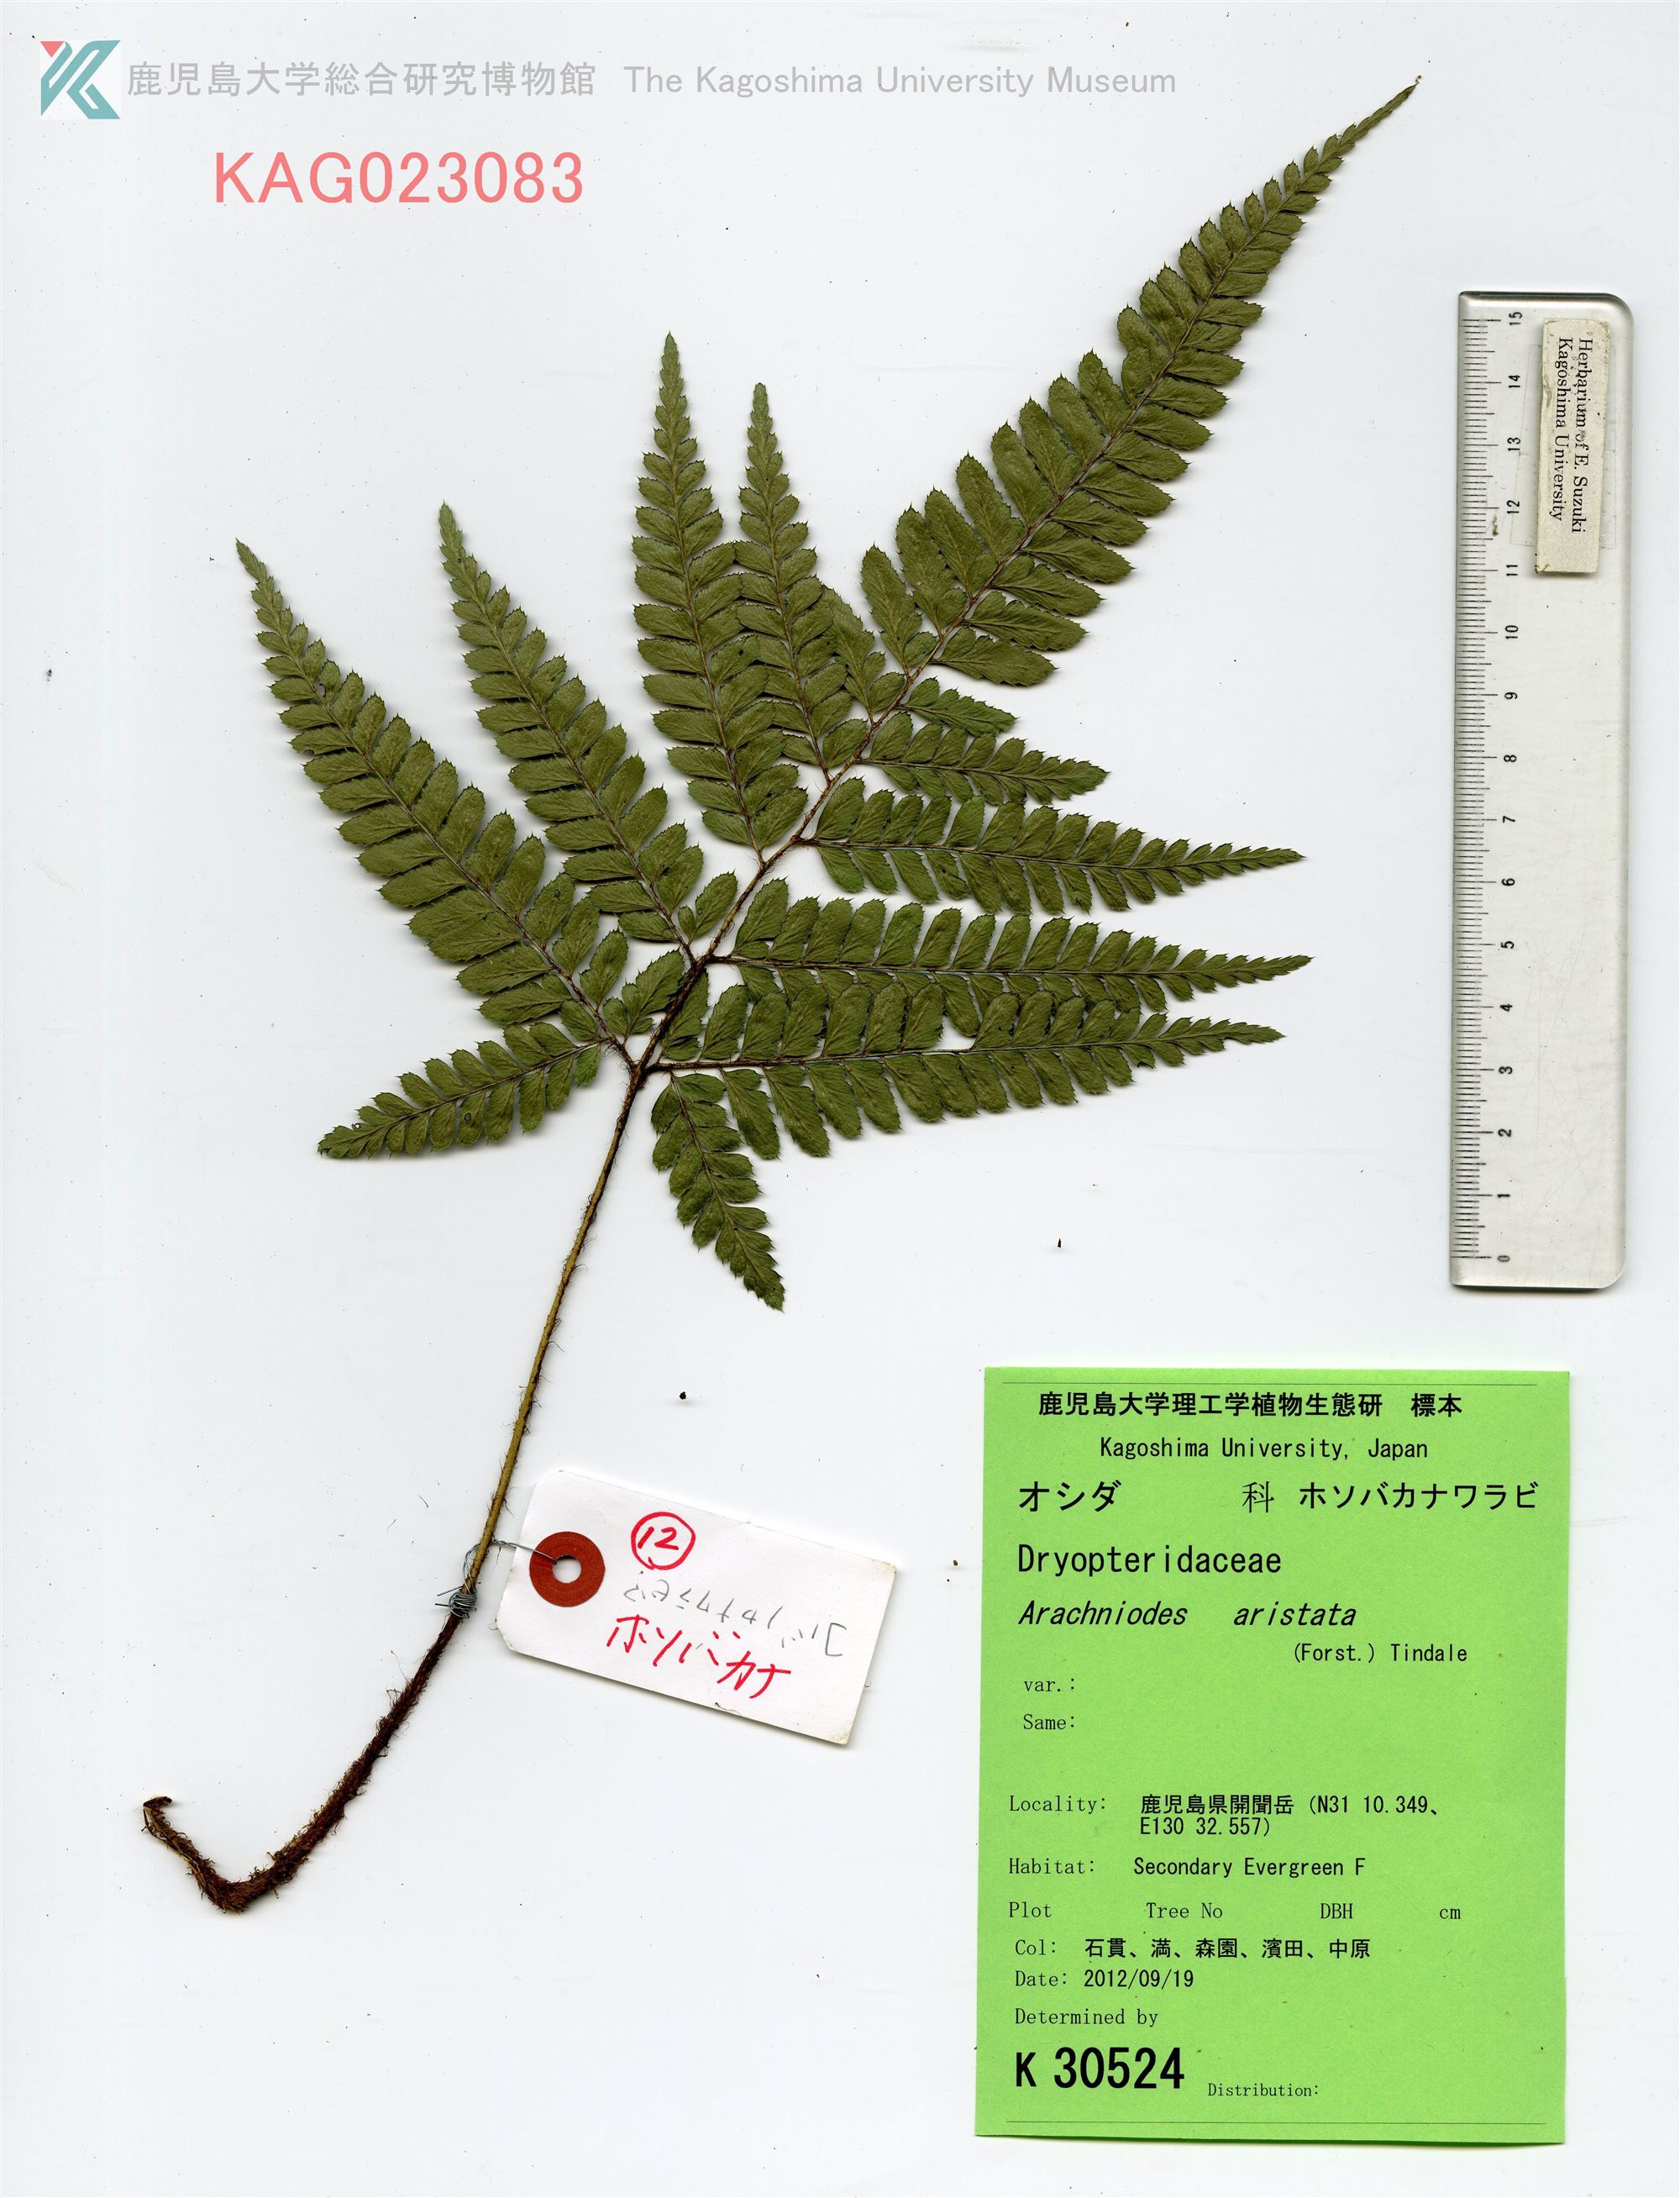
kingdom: Plantae
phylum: Tracheophyta
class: Polypodiopsida
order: Polypodiales
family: Dryopteridaceae
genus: Arachniodes
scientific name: Arachniodes carvifolia
